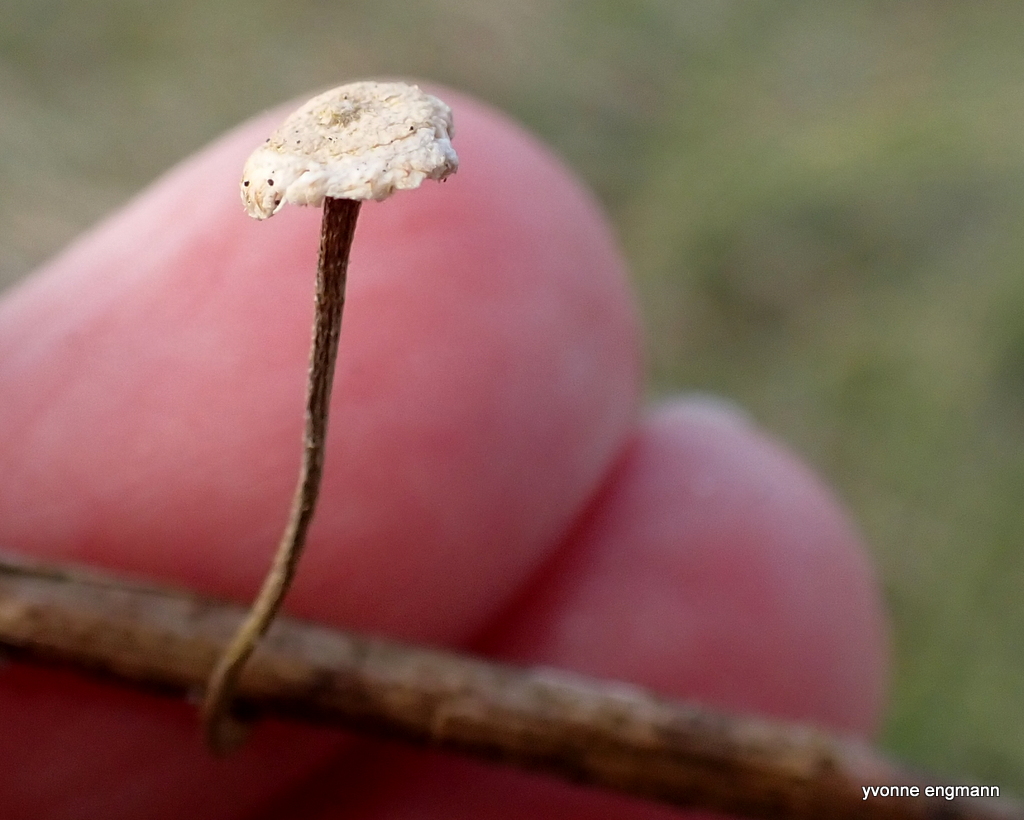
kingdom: Fungi
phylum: Basidiomycota
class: Agaricomycetes
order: Agaricales
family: Marasmiaceae
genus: Crinipellis
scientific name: Crinipellis scabella
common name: børstefod
